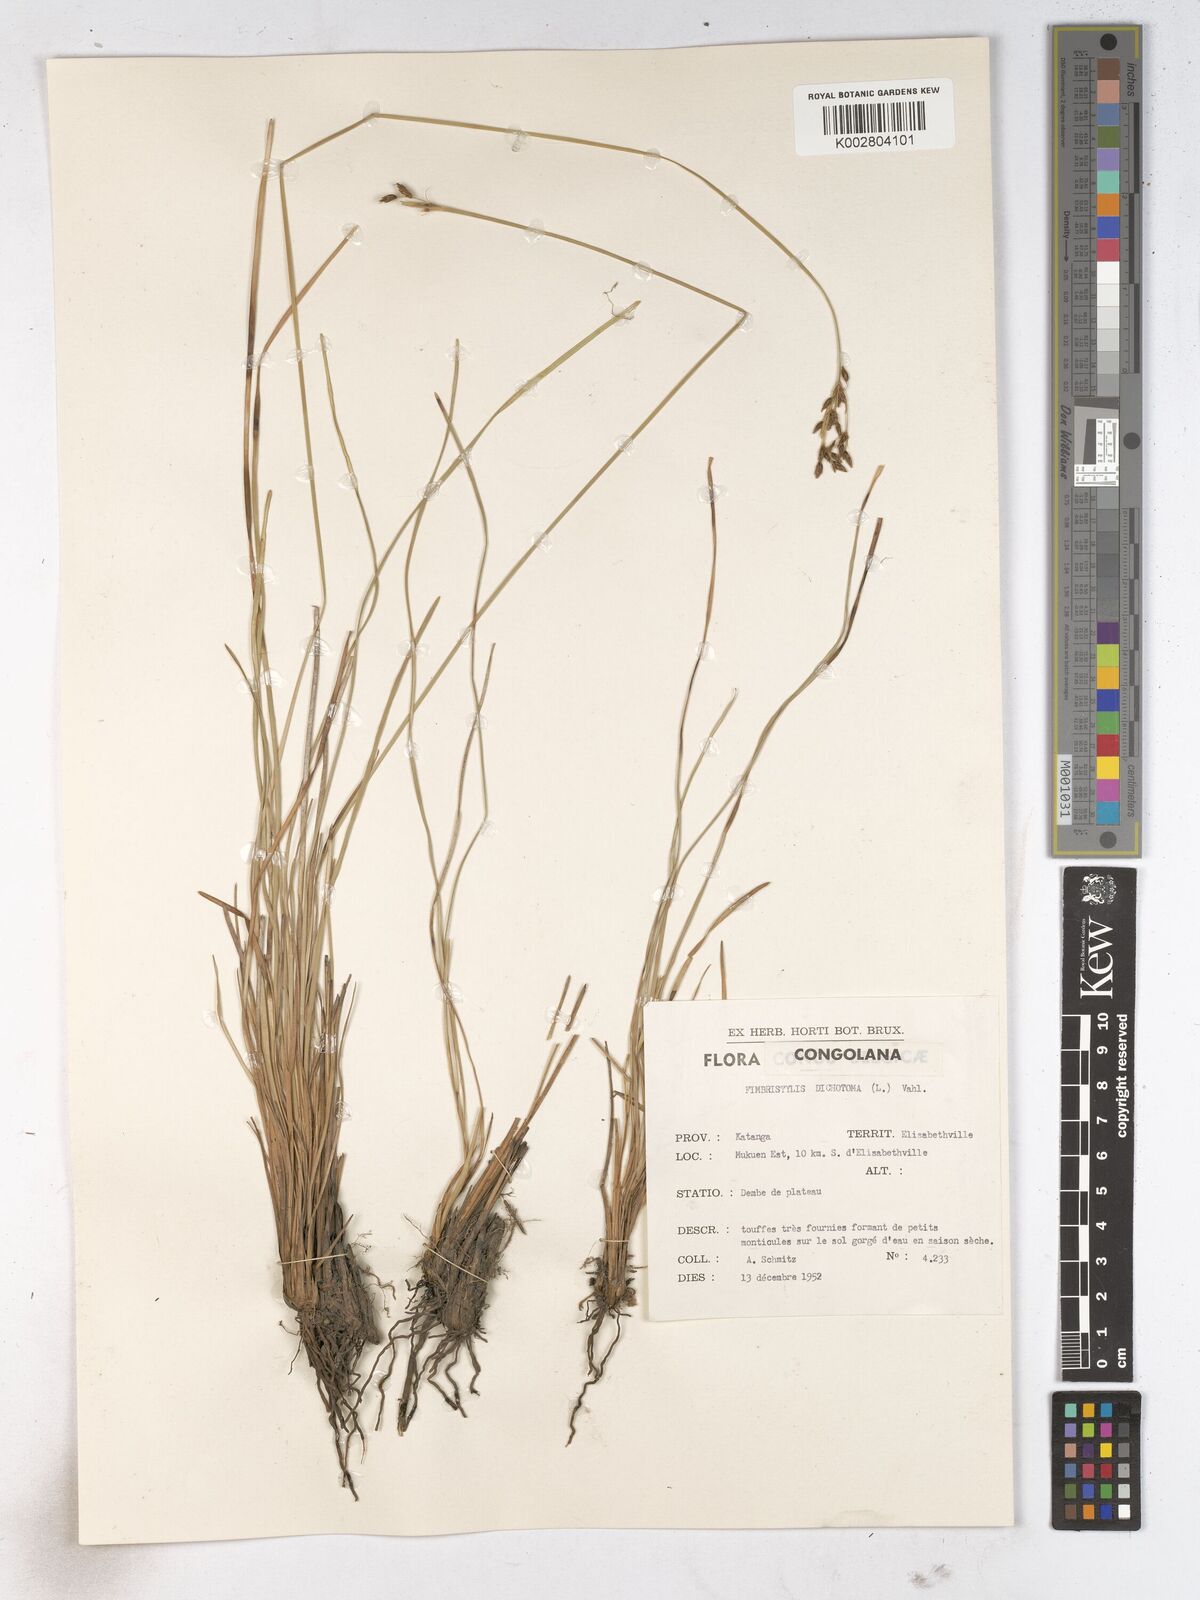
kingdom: Plantae
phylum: Tracheophyta
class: Liliopsida
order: Poales
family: Cyperaceae
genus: Fimbristylis
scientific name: Fimbristylis dichotoma
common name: Forked fimbry
